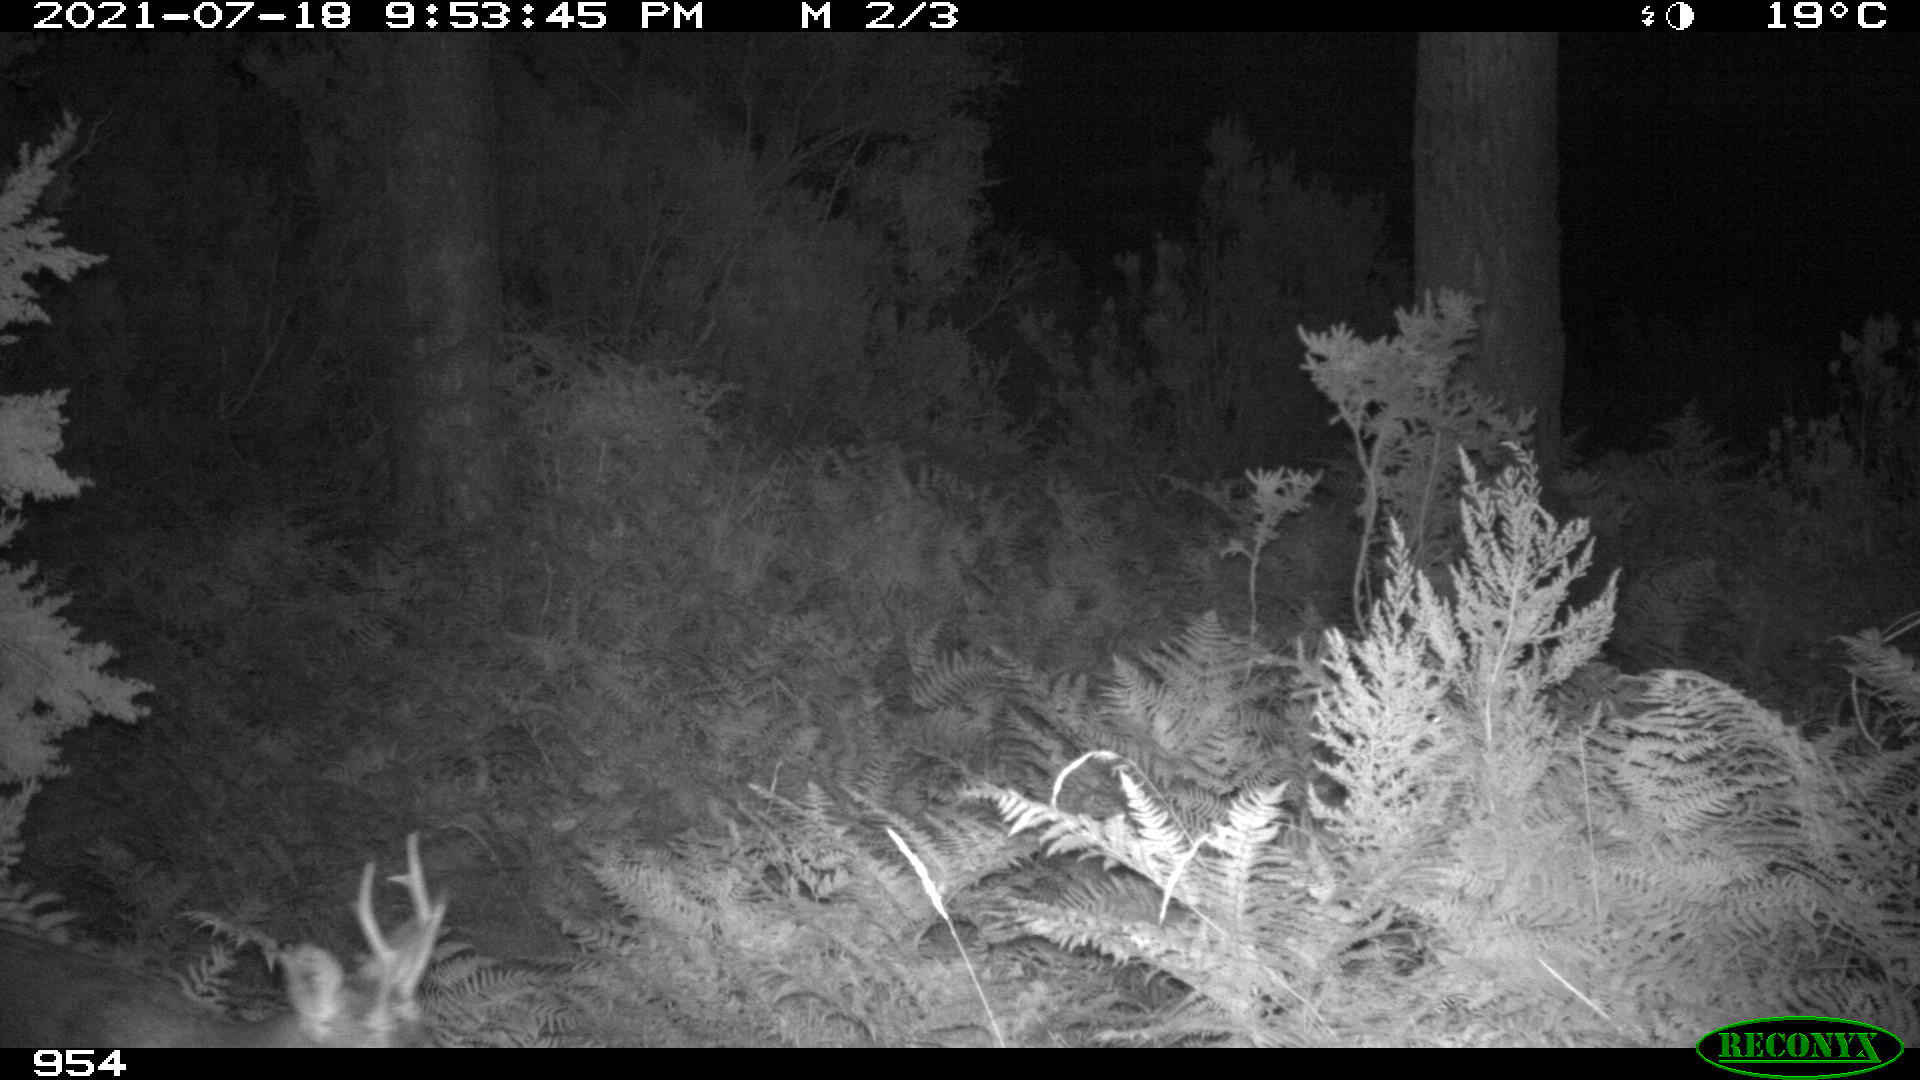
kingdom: Animalia
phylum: Chordata
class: Mammalia
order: Artiodactyla
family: Cervidae
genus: Capreolus
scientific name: Capreolus capreolus
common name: Western roe deer
